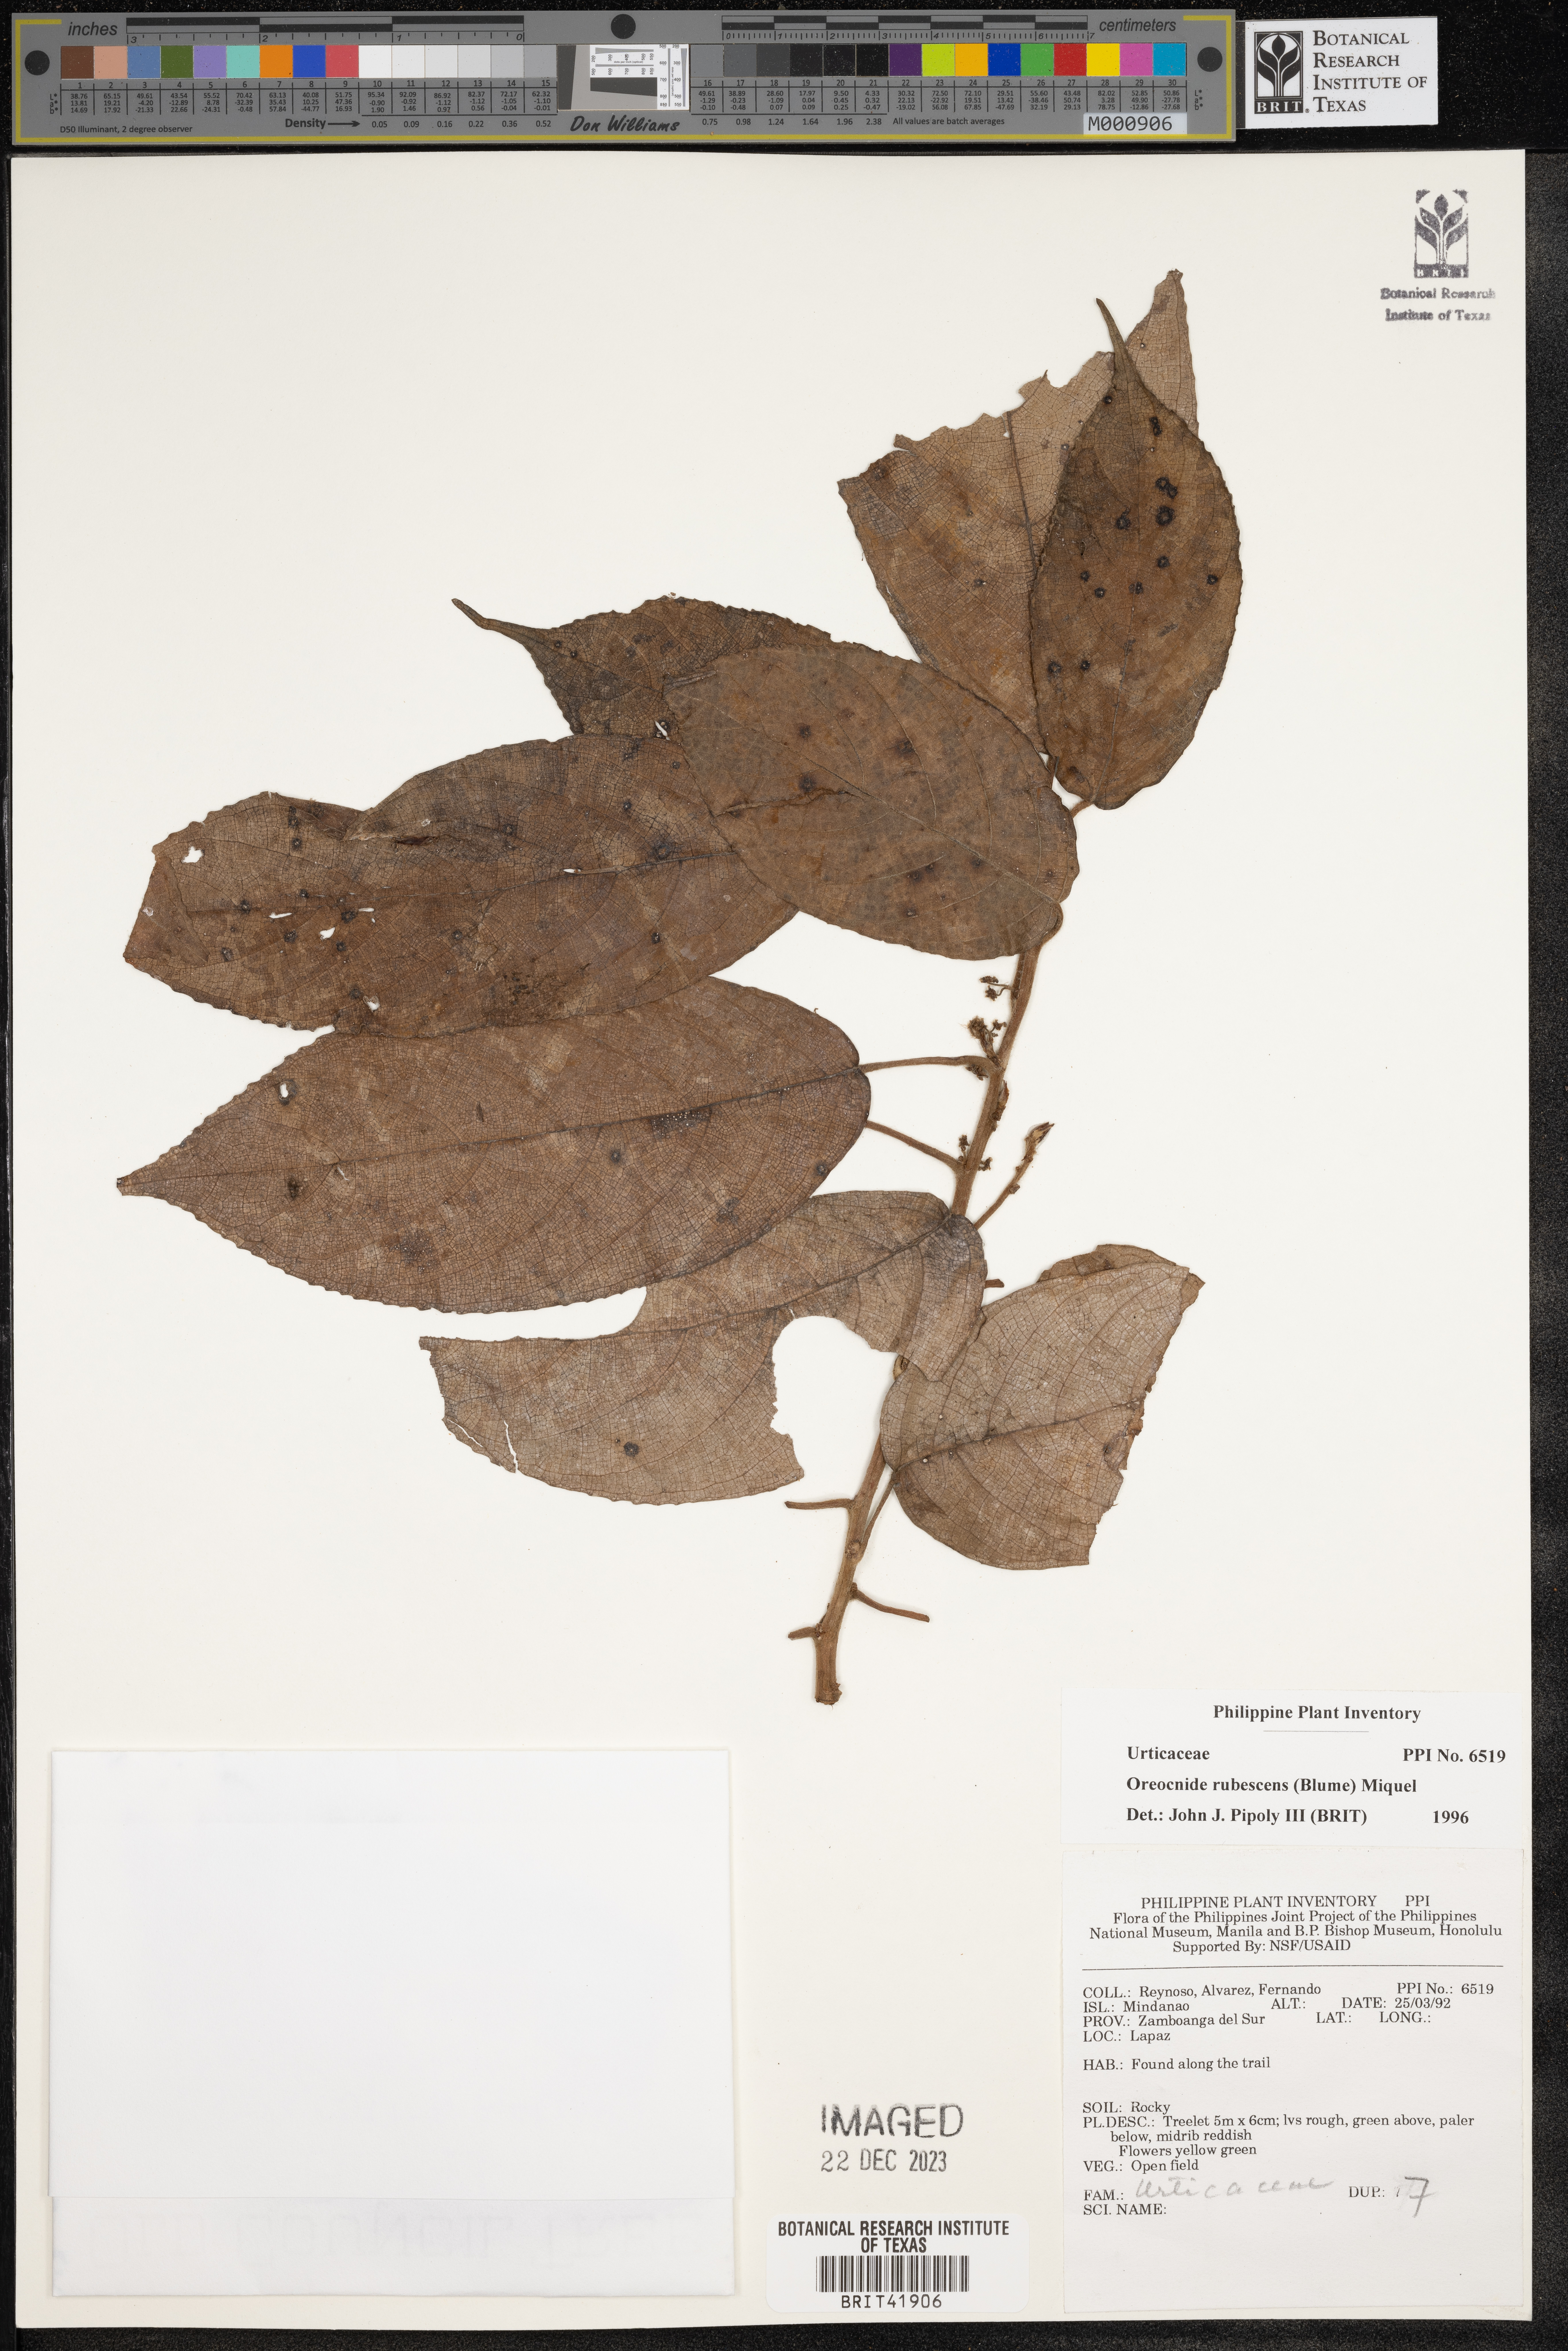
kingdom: Plantae
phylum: Tracheophyta
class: Magnoliopsida
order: Rosales
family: Urticaceae
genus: Oreocnide
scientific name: Oreocnide rubescens
